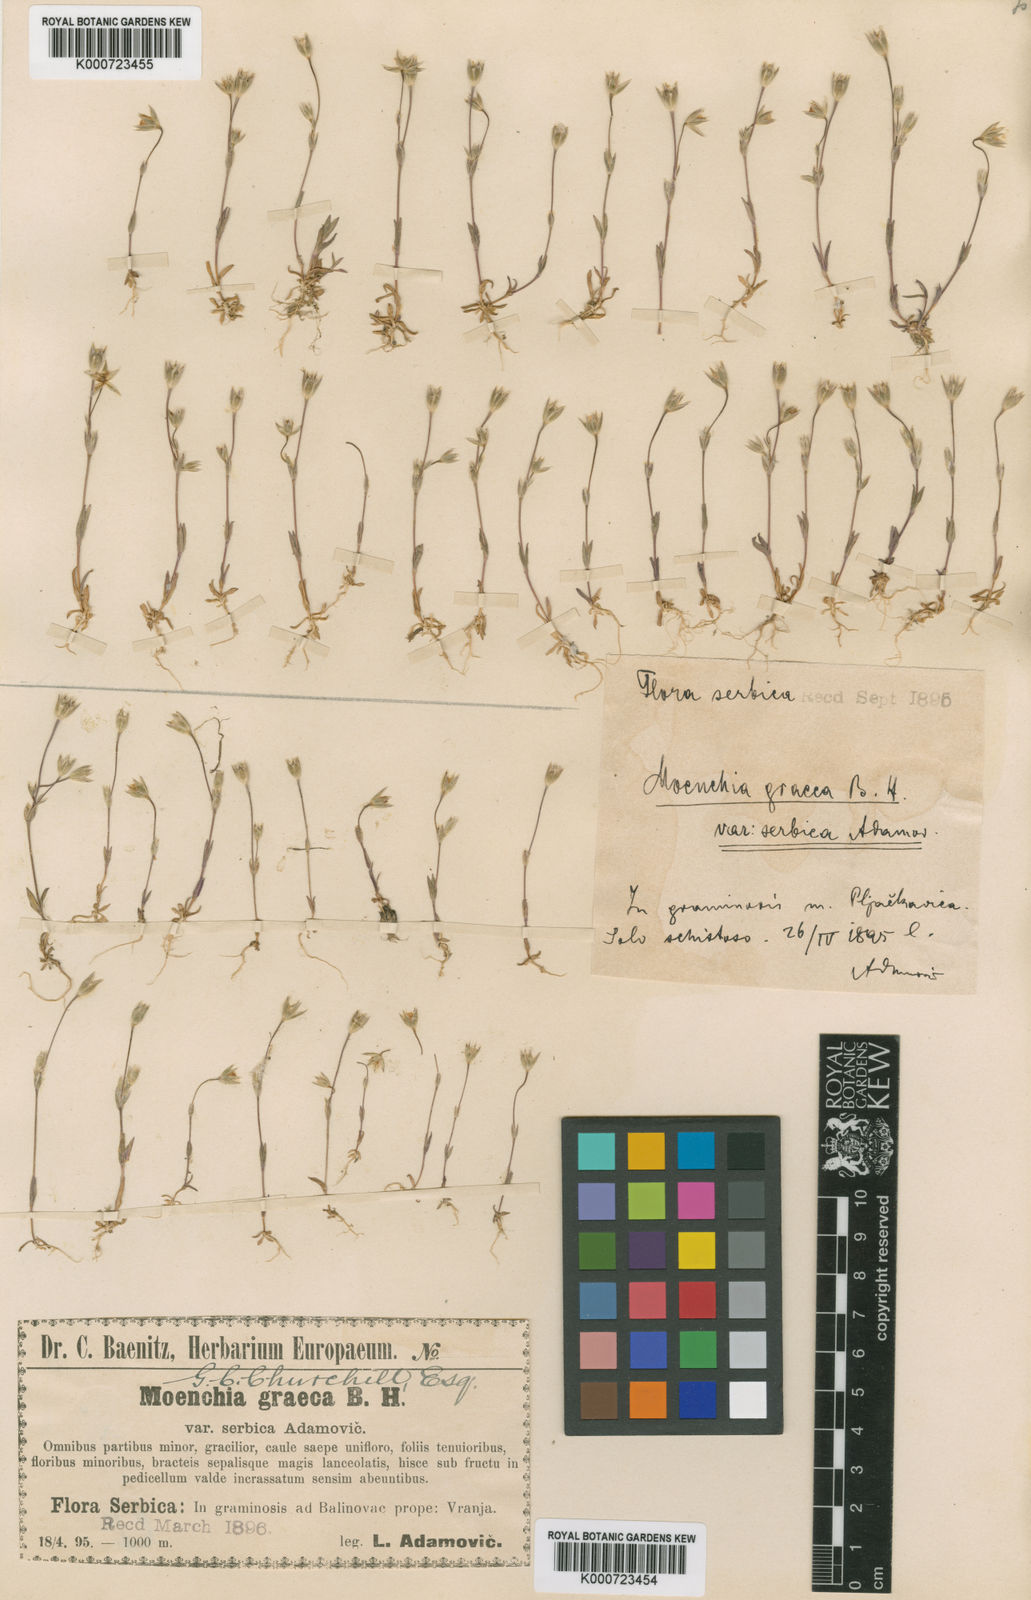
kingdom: Plantae
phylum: Tracheophyta
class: Magnoliopsida
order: Caryophyllales
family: Caryophyllaceae
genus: Moenchia
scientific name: Moenchia graeca
